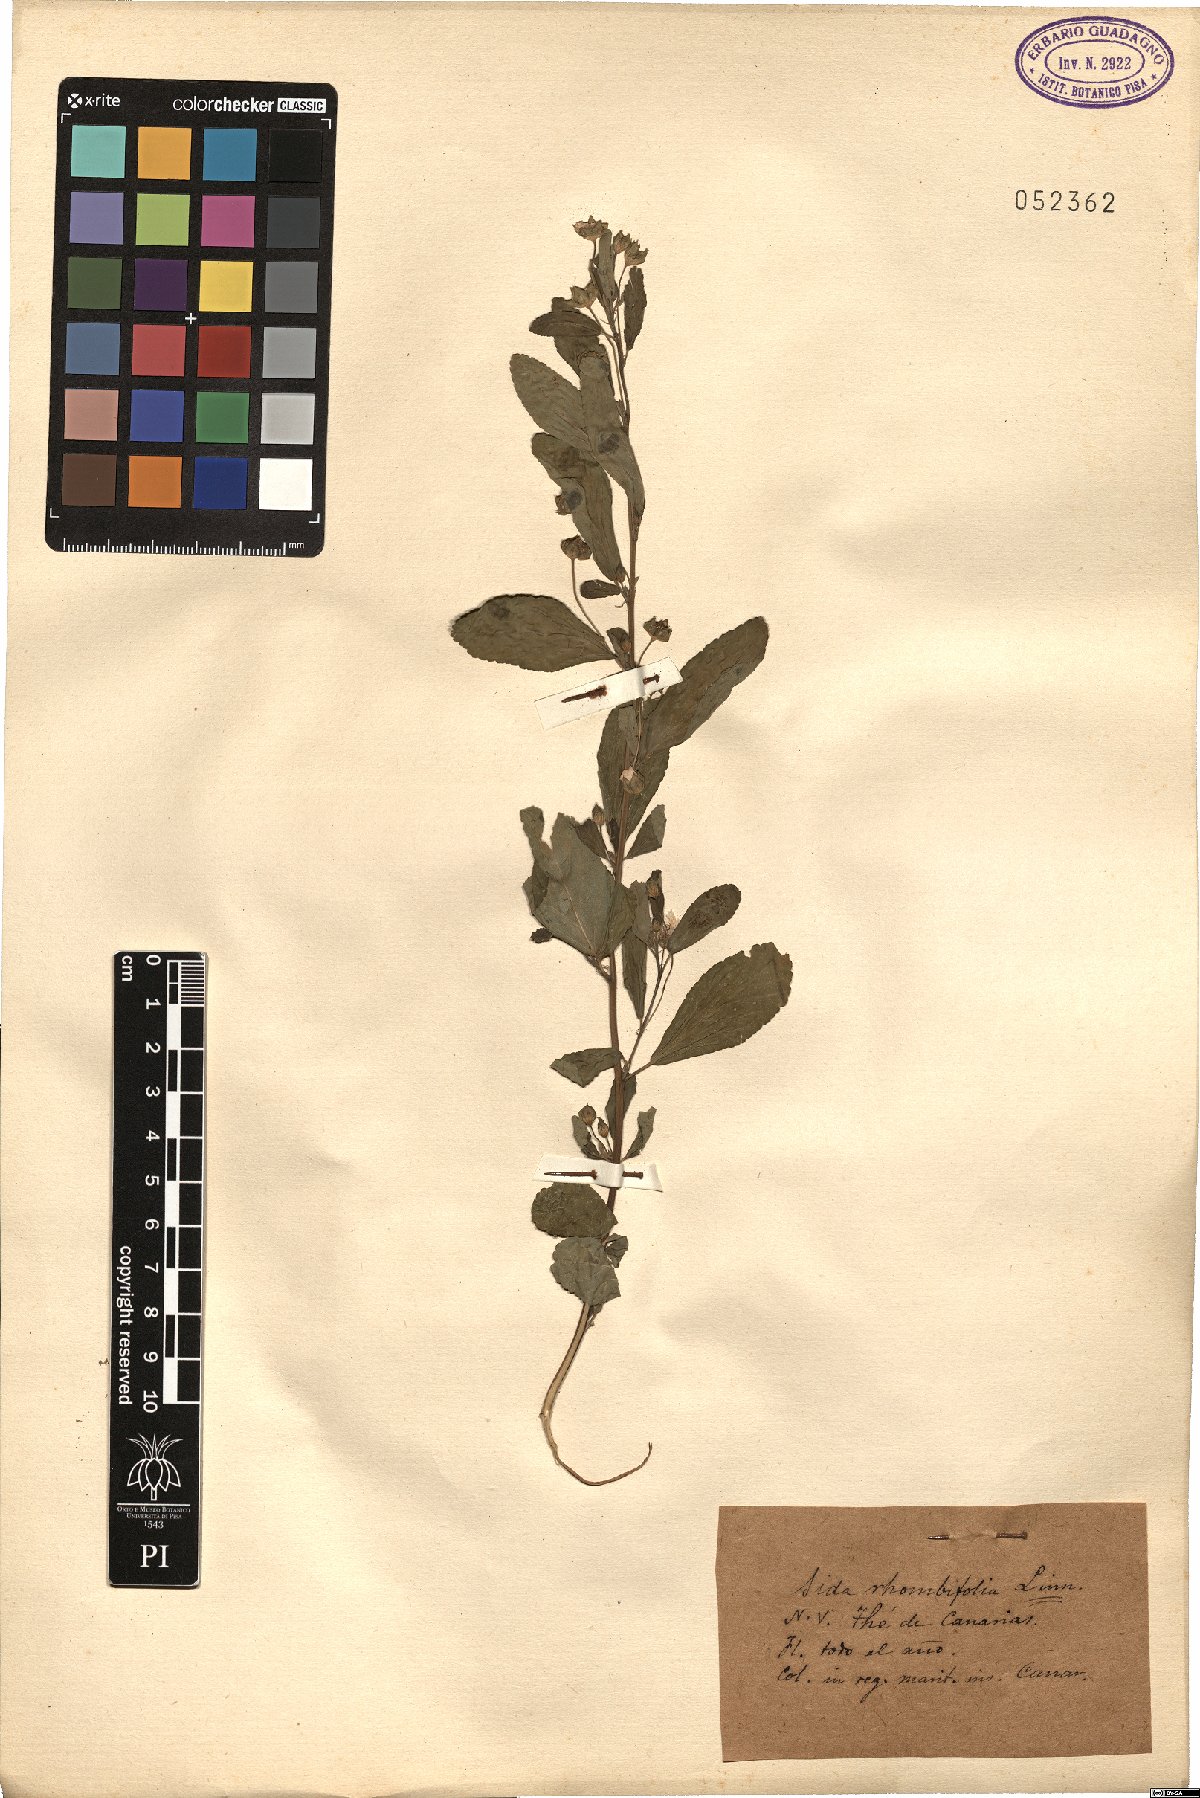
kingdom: Plantae
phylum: Tracheophyta
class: Magnoliopsida
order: Malvales
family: Malvaceae
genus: Sida
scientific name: Sida rhombifolia
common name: Queensland-hemp
